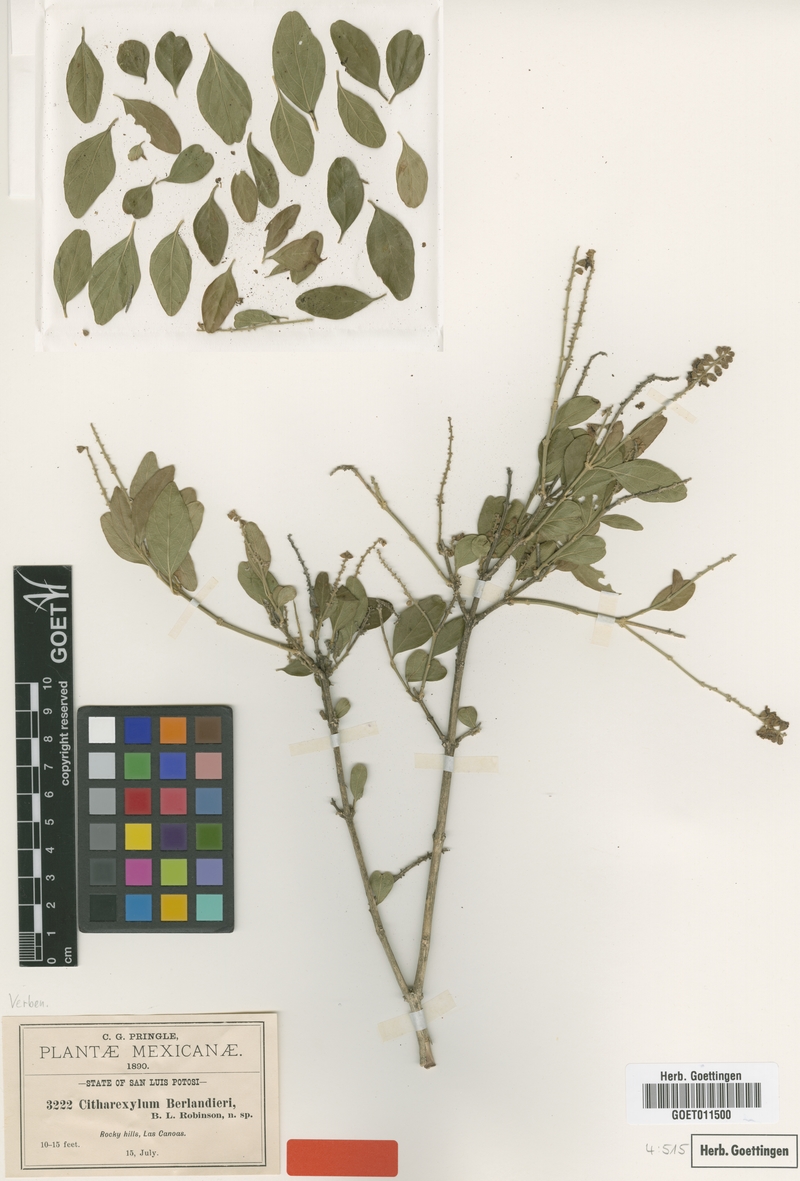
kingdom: Plantae
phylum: Tracheophyta
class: Magnoliopsida
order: Lamiales
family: Verbenaceae
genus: Citharexylum
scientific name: Citharexylum berlandieri
